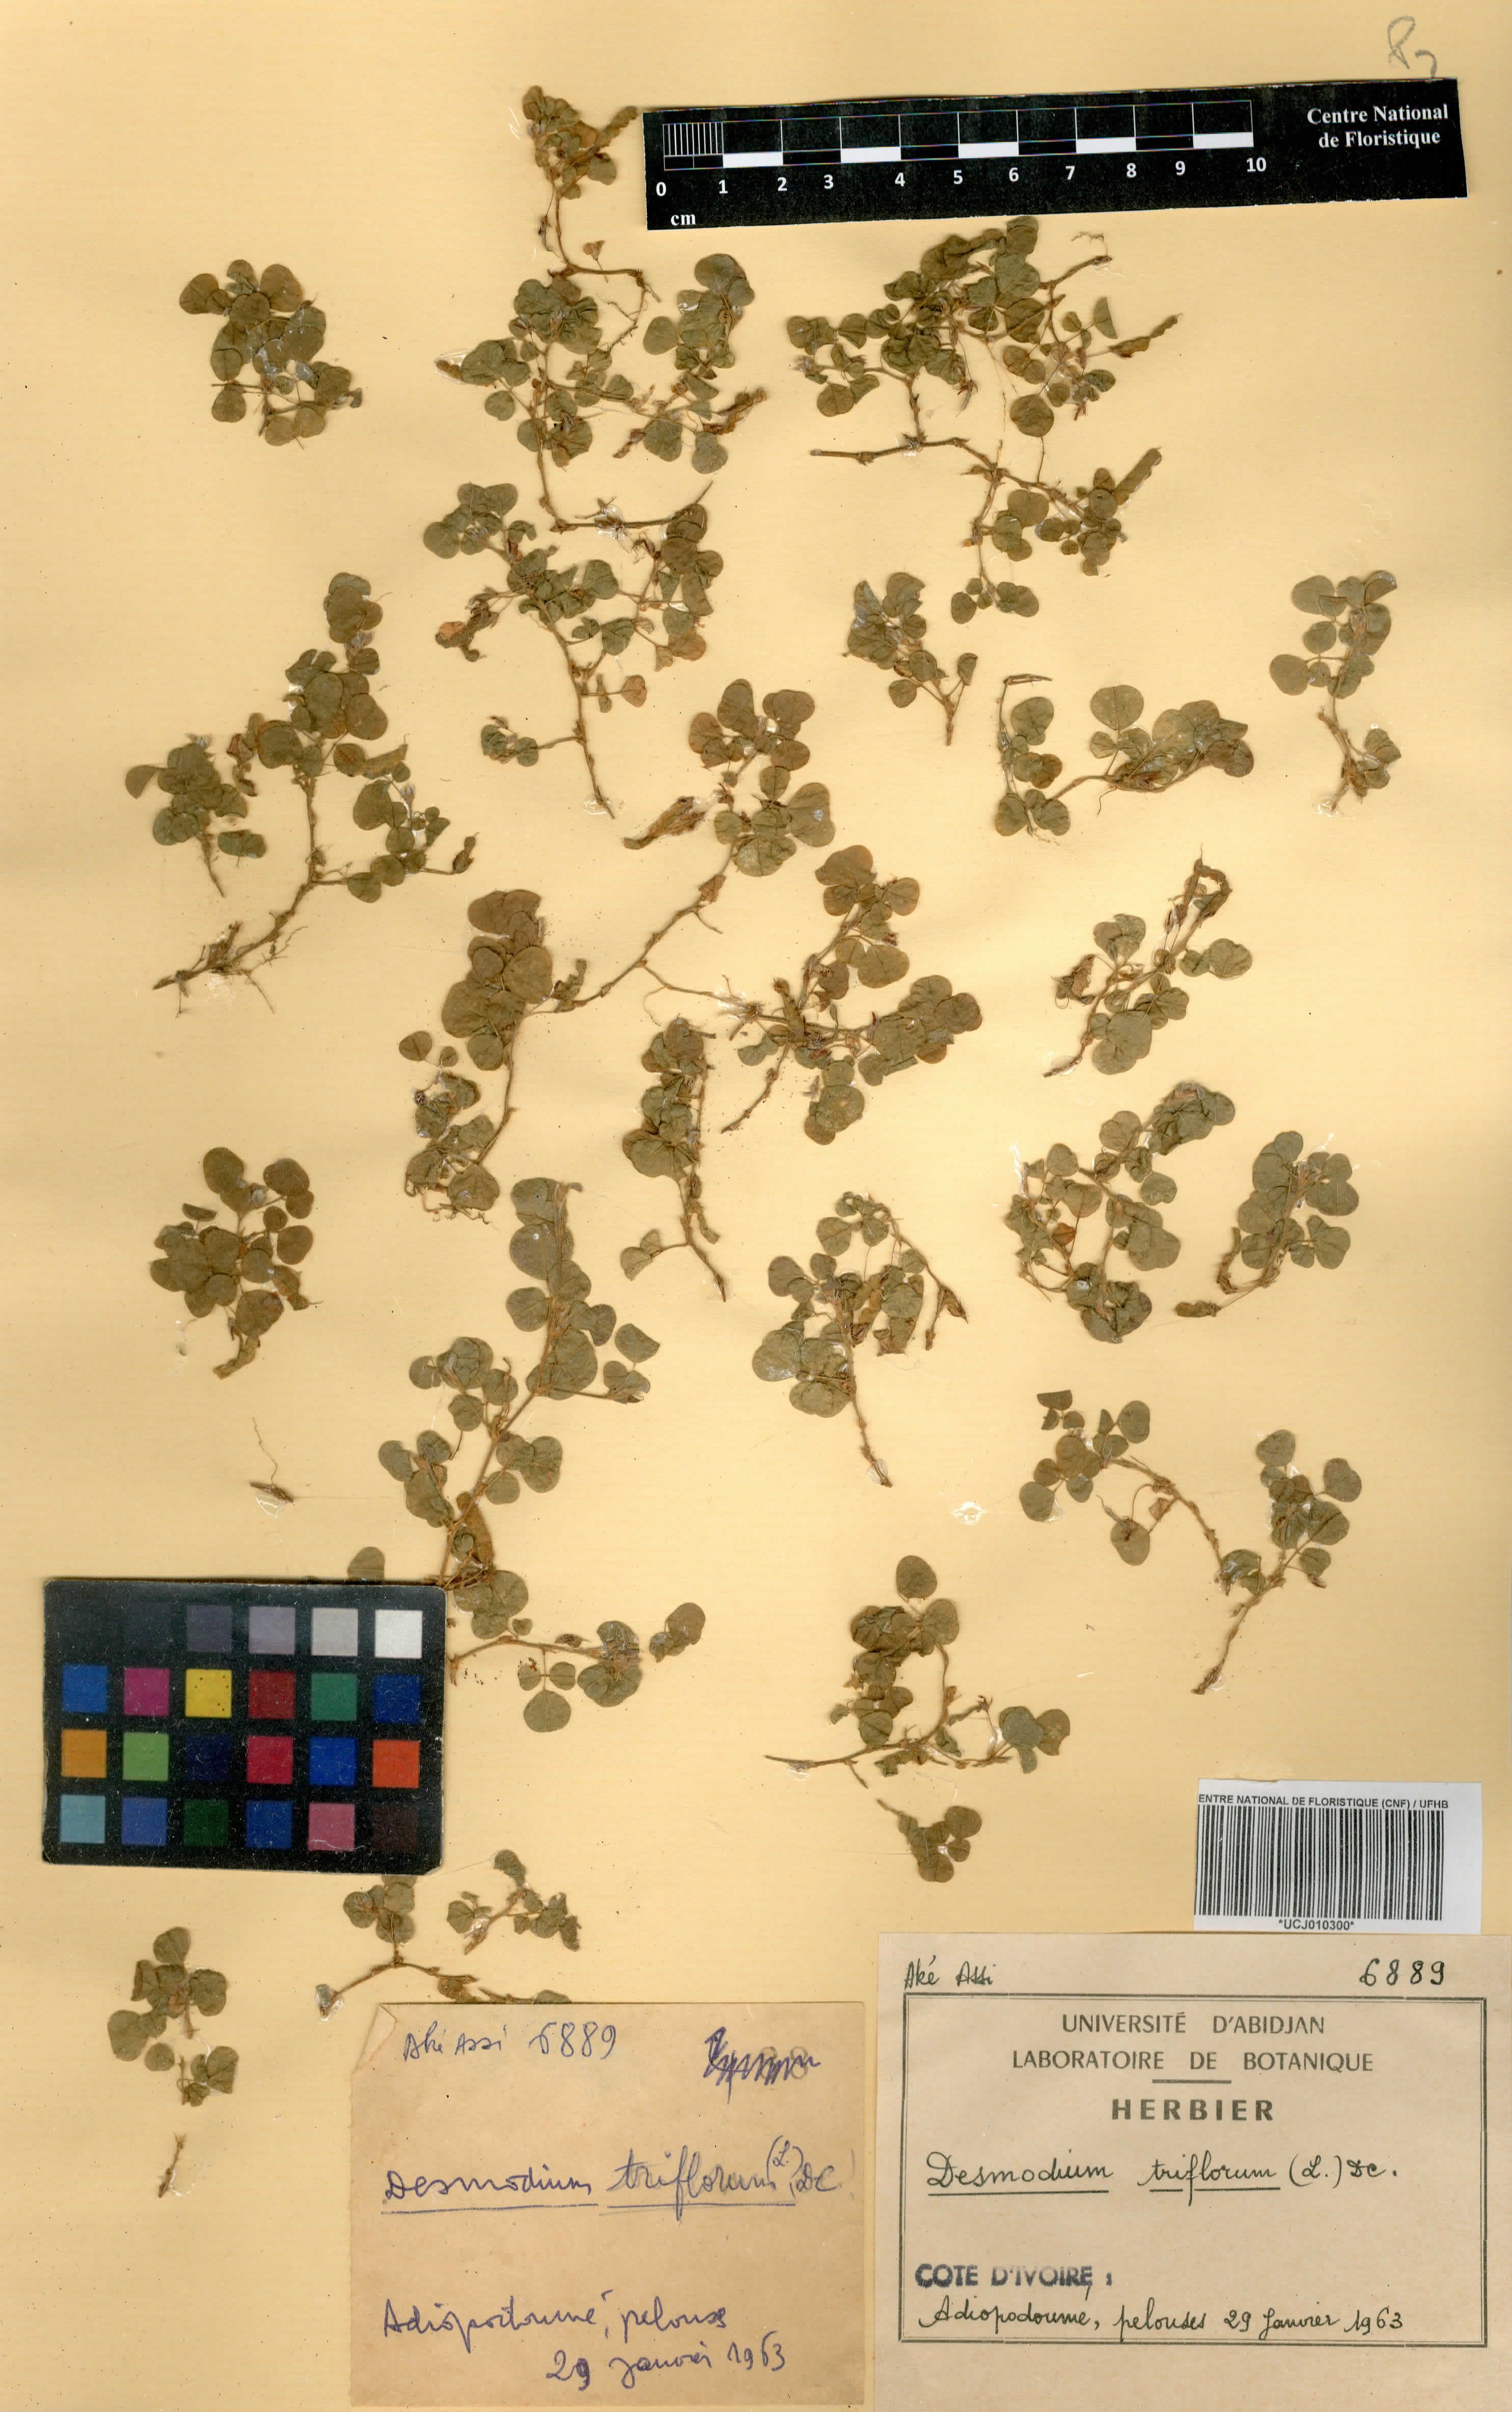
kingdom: Plantae
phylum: Tracheophyta
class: Magnoliopsida
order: Fabales
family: Fabaceae
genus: Grona
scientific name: Grona triflora
